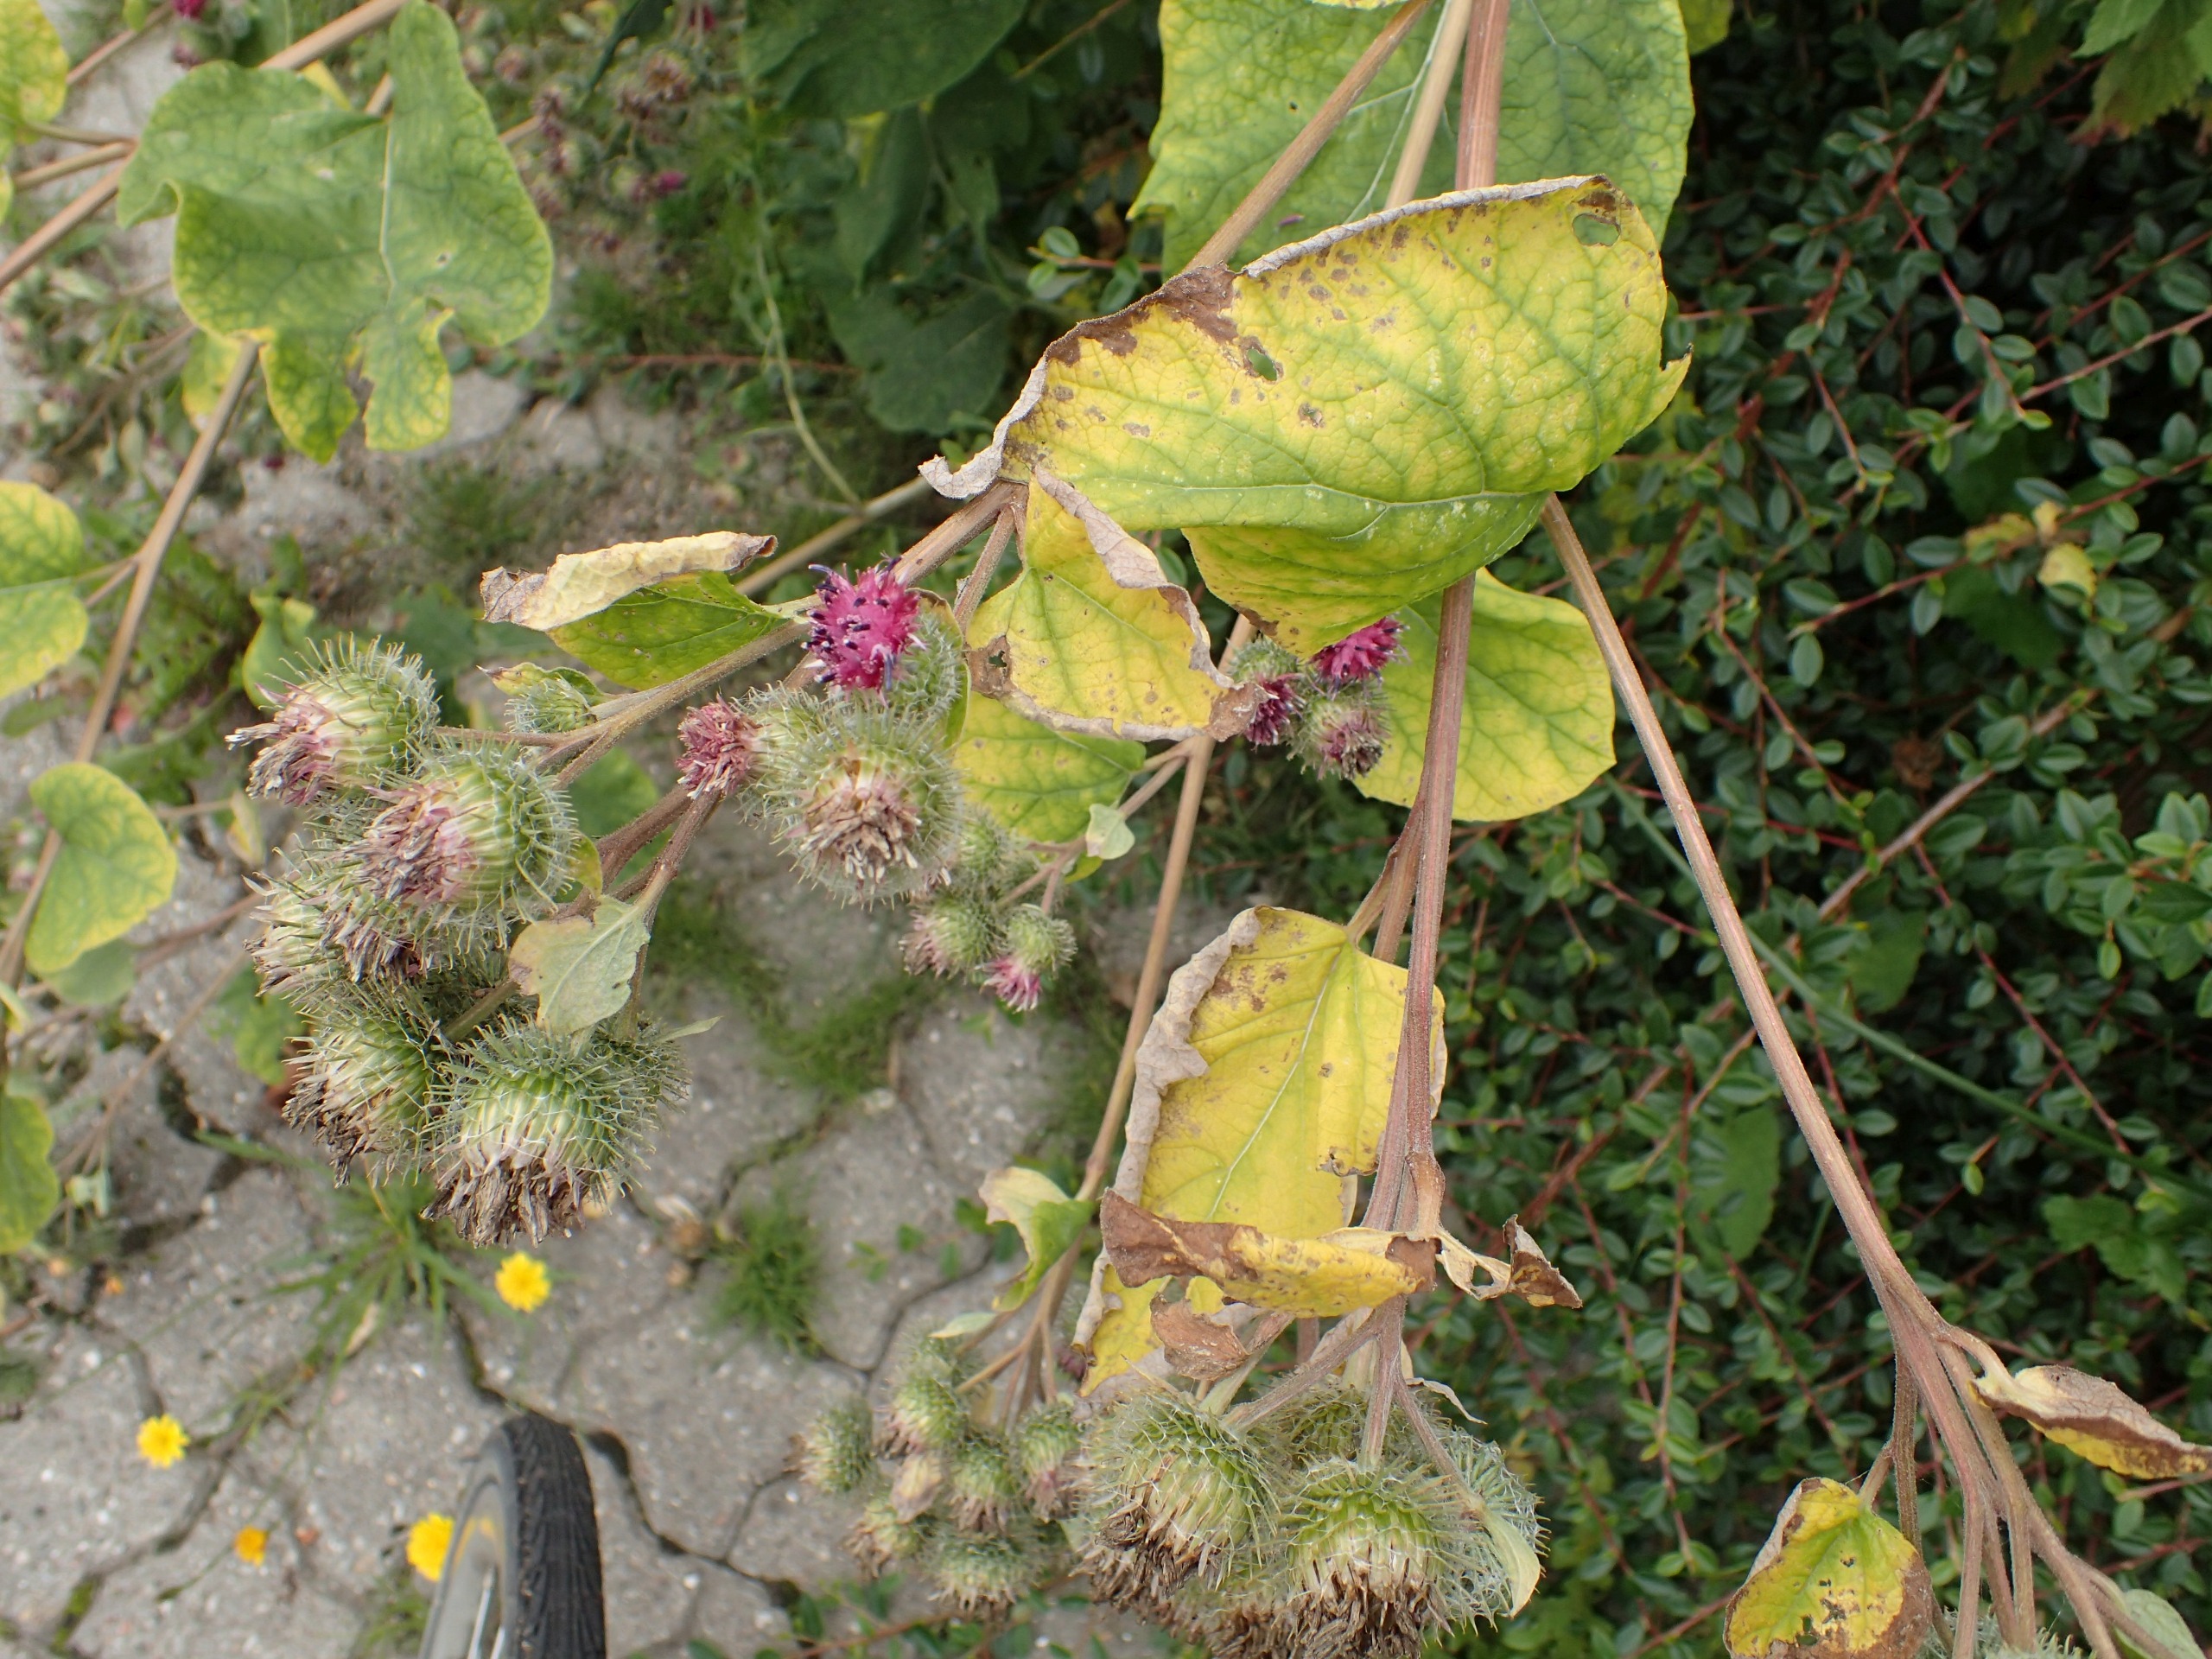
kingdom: Plantae
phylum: Tracheophyta
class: Magnoliopsida
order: Asterales
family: Asteraceae
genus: Arctium
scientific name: Arctium
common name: Burreslægten
